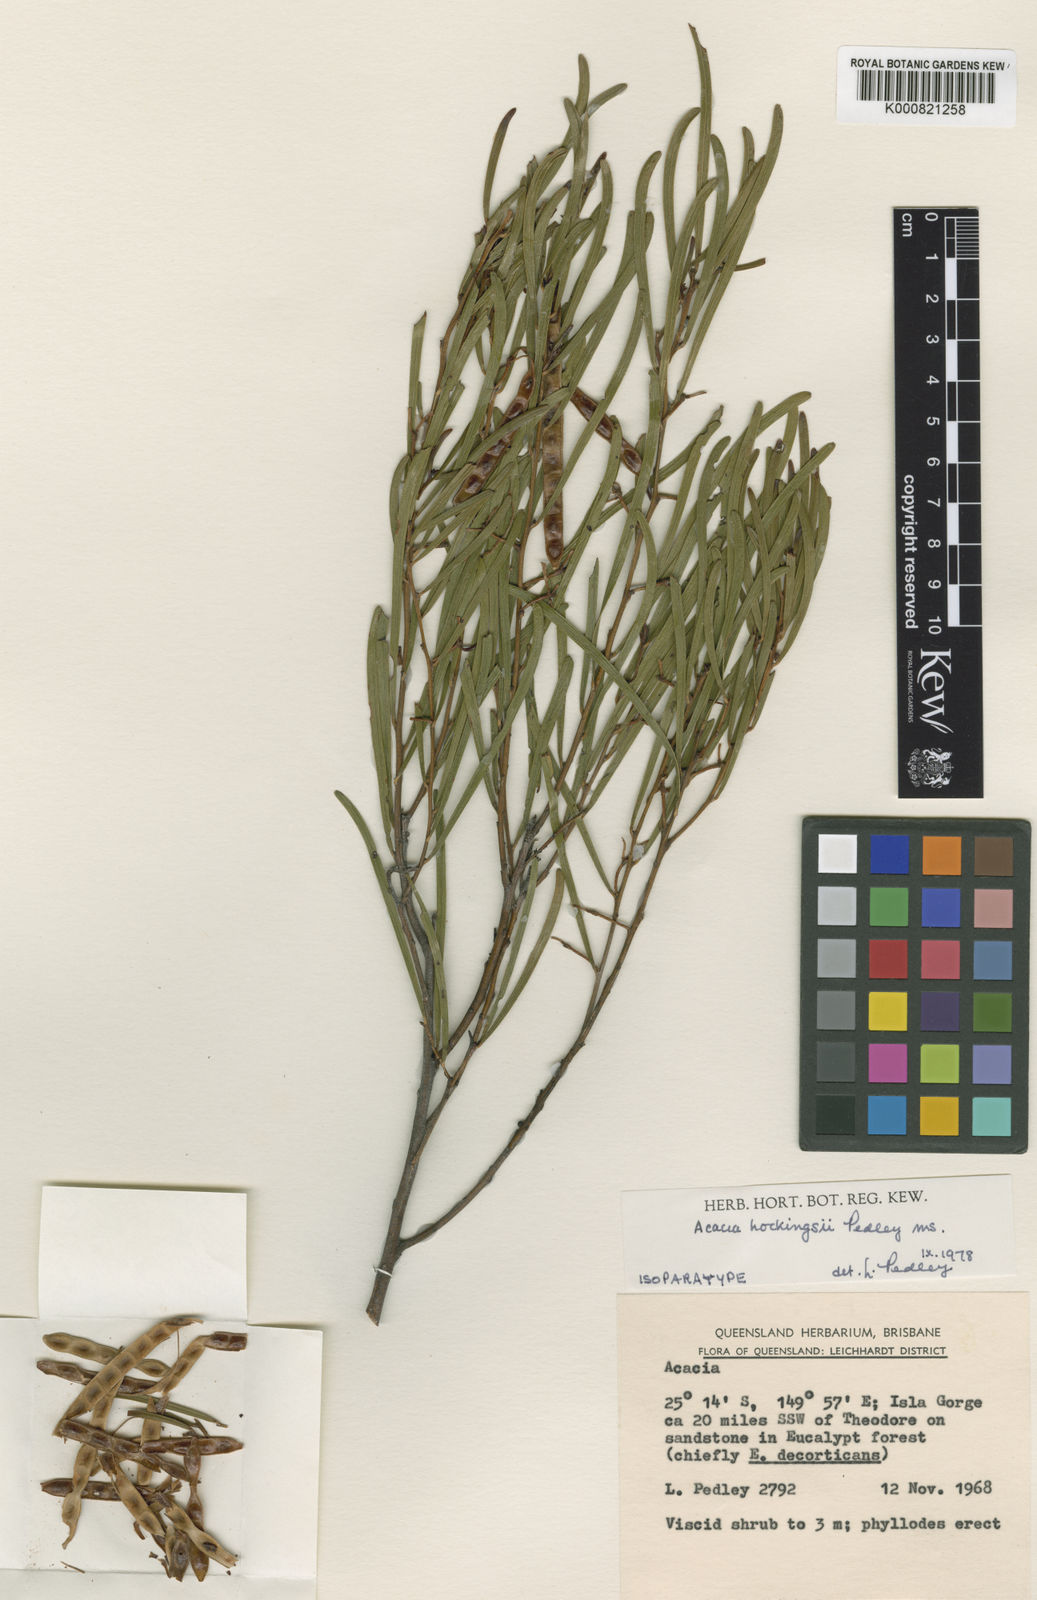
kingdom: Plantae
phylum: Tracheophyta
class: Magnoliopsida
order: Fabales
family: Fabaceae
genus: Acacia
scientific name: Acacia hockingsii
